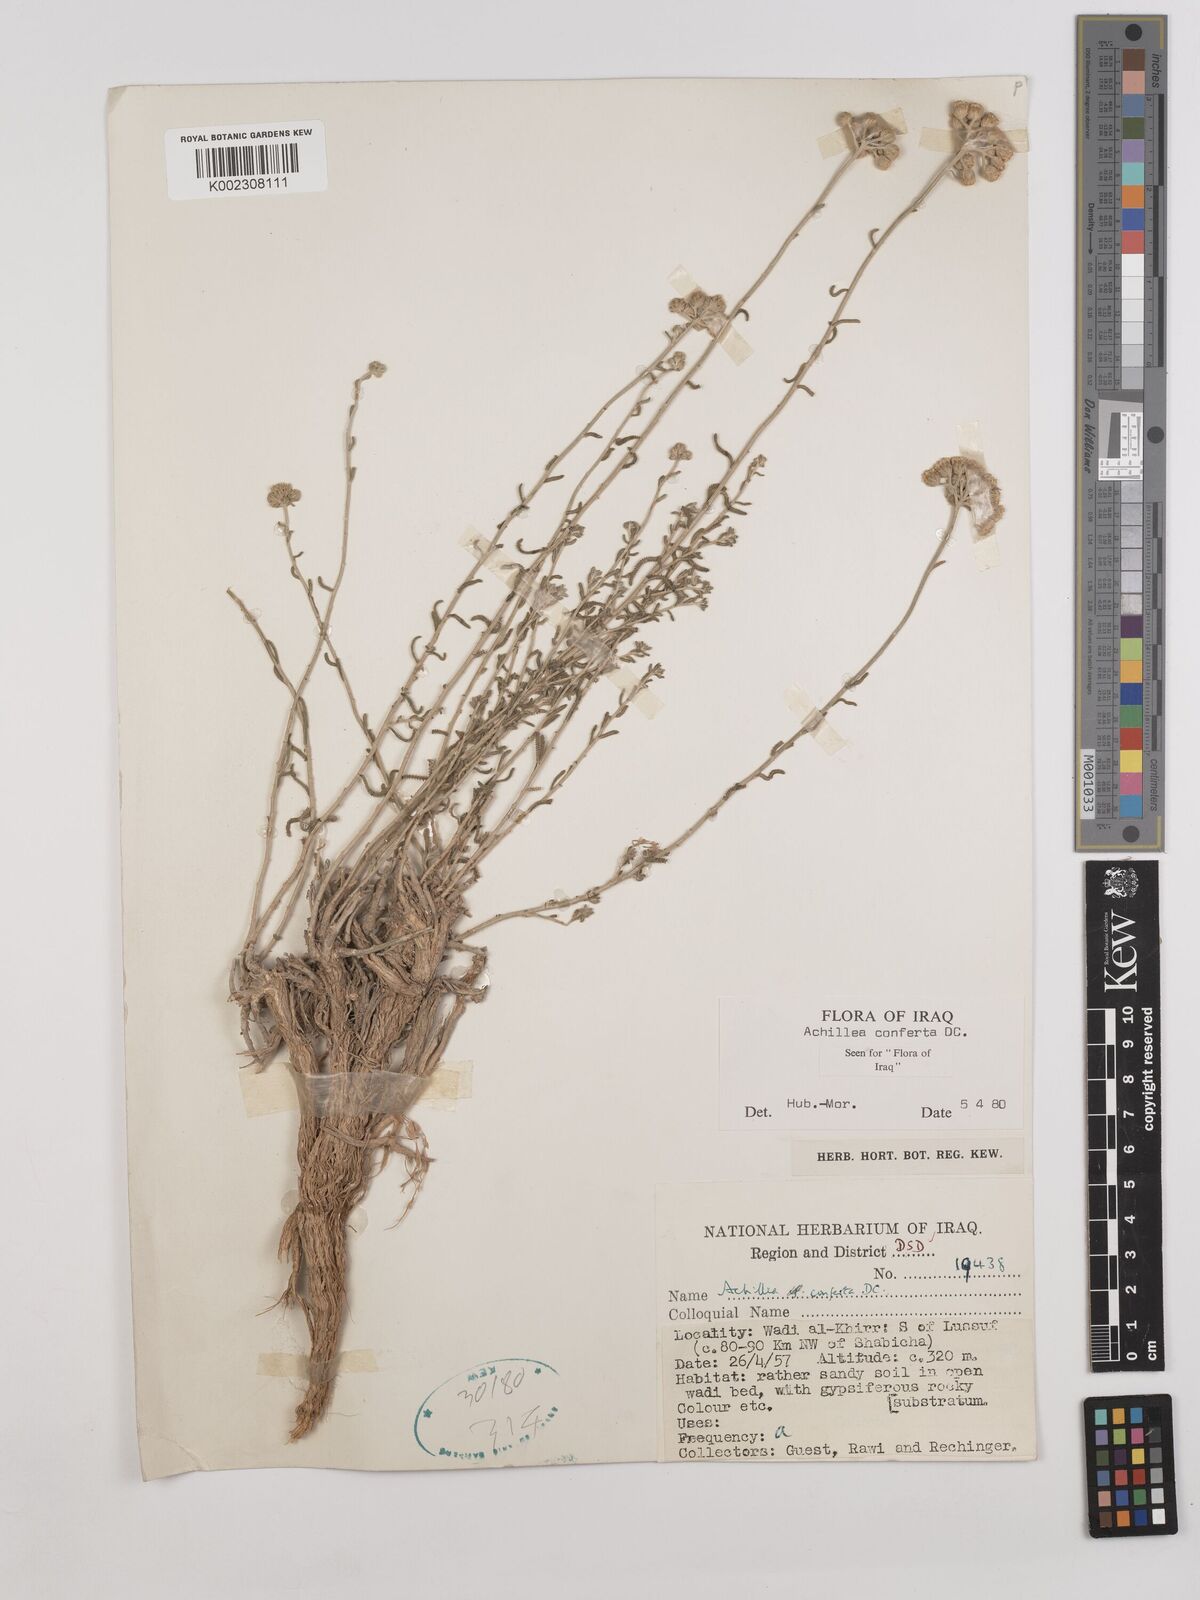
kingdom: Plantae
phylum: Tracheophyta
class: Magnoliopsida
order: Asterales
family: Asteraceae
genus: Achillea
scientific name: Achillea conferta
